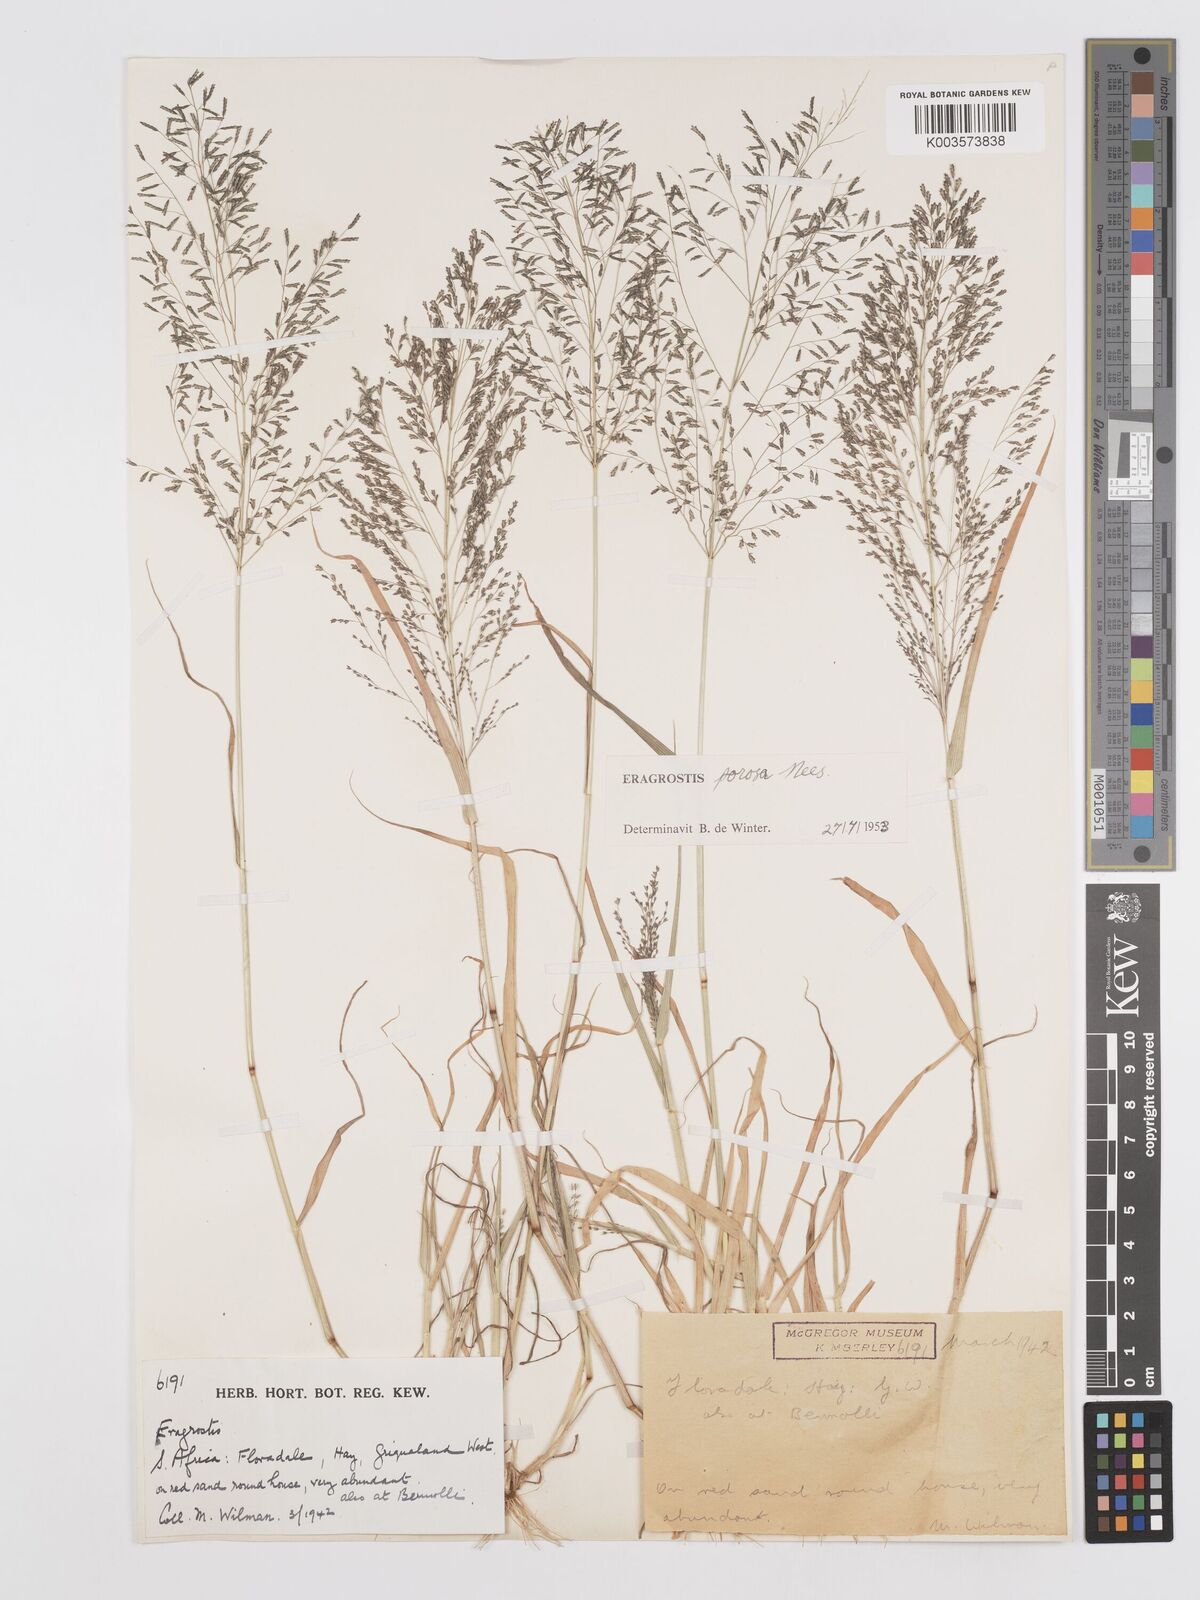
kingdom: Plantae
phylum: Tracheophyta
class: Liliopsida
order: Poales
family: Poaceae
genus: Eragrostis
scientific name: Eragrostis porosa
